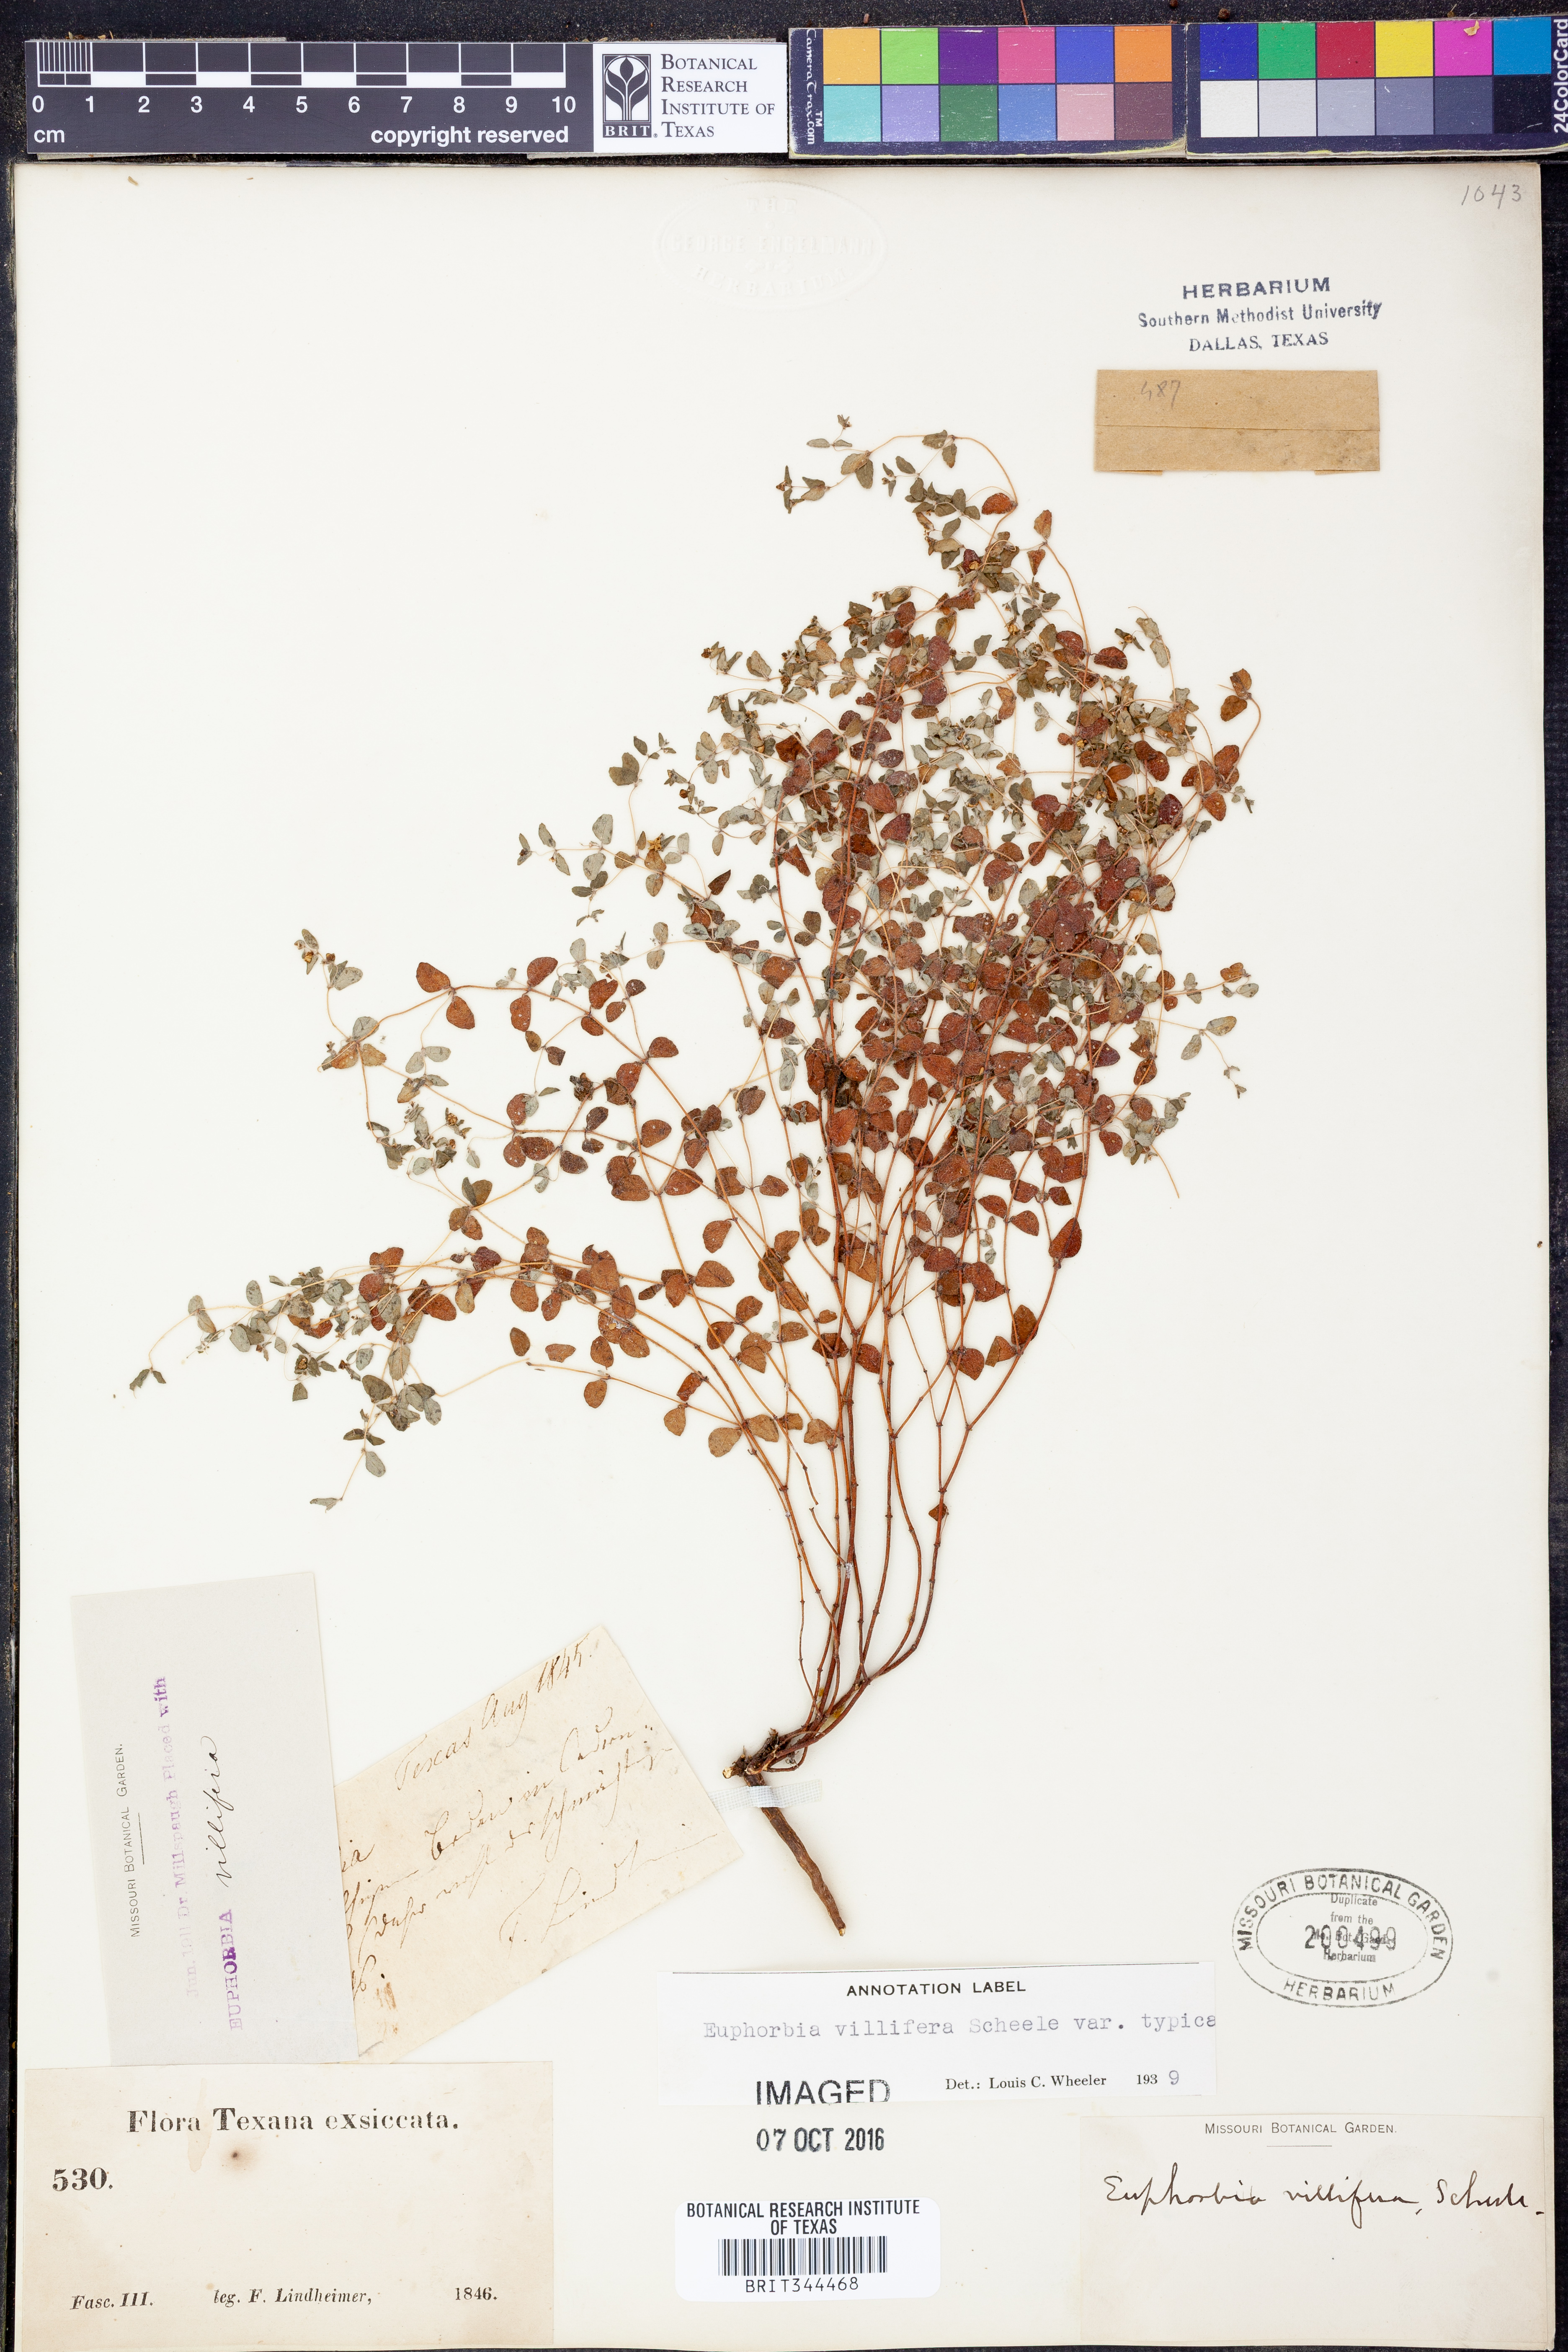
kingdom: Plantae
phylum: Tracheophyta
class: Magnoliopsida
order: Malpighiales
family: Euphorbiaceae
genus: Euphorbia
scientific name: Euphorbia micractina
